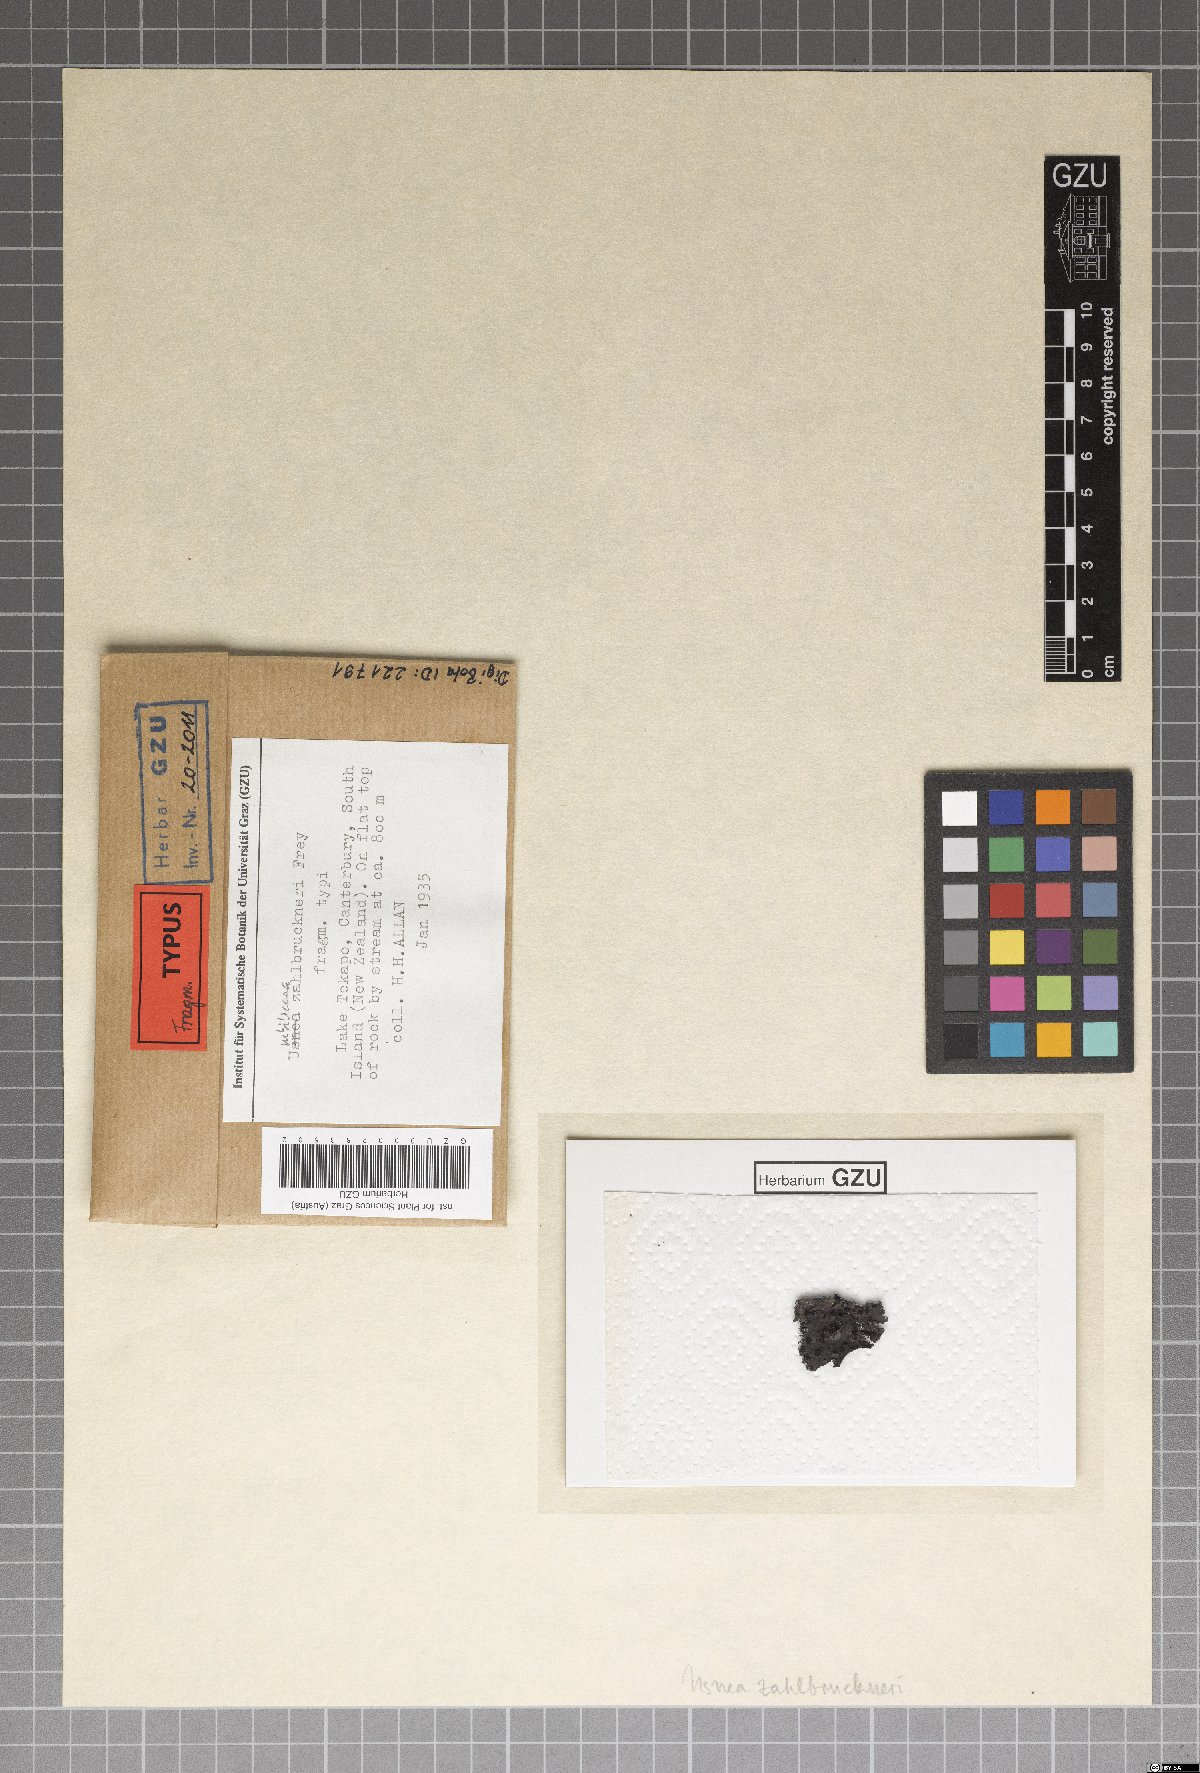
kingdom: Fungi
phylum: Ascomycota
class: Lecanoromycetes
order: Umbilicariales
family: Umbilicariaceae
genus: Umbilicaria
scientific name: Umbilicaria
